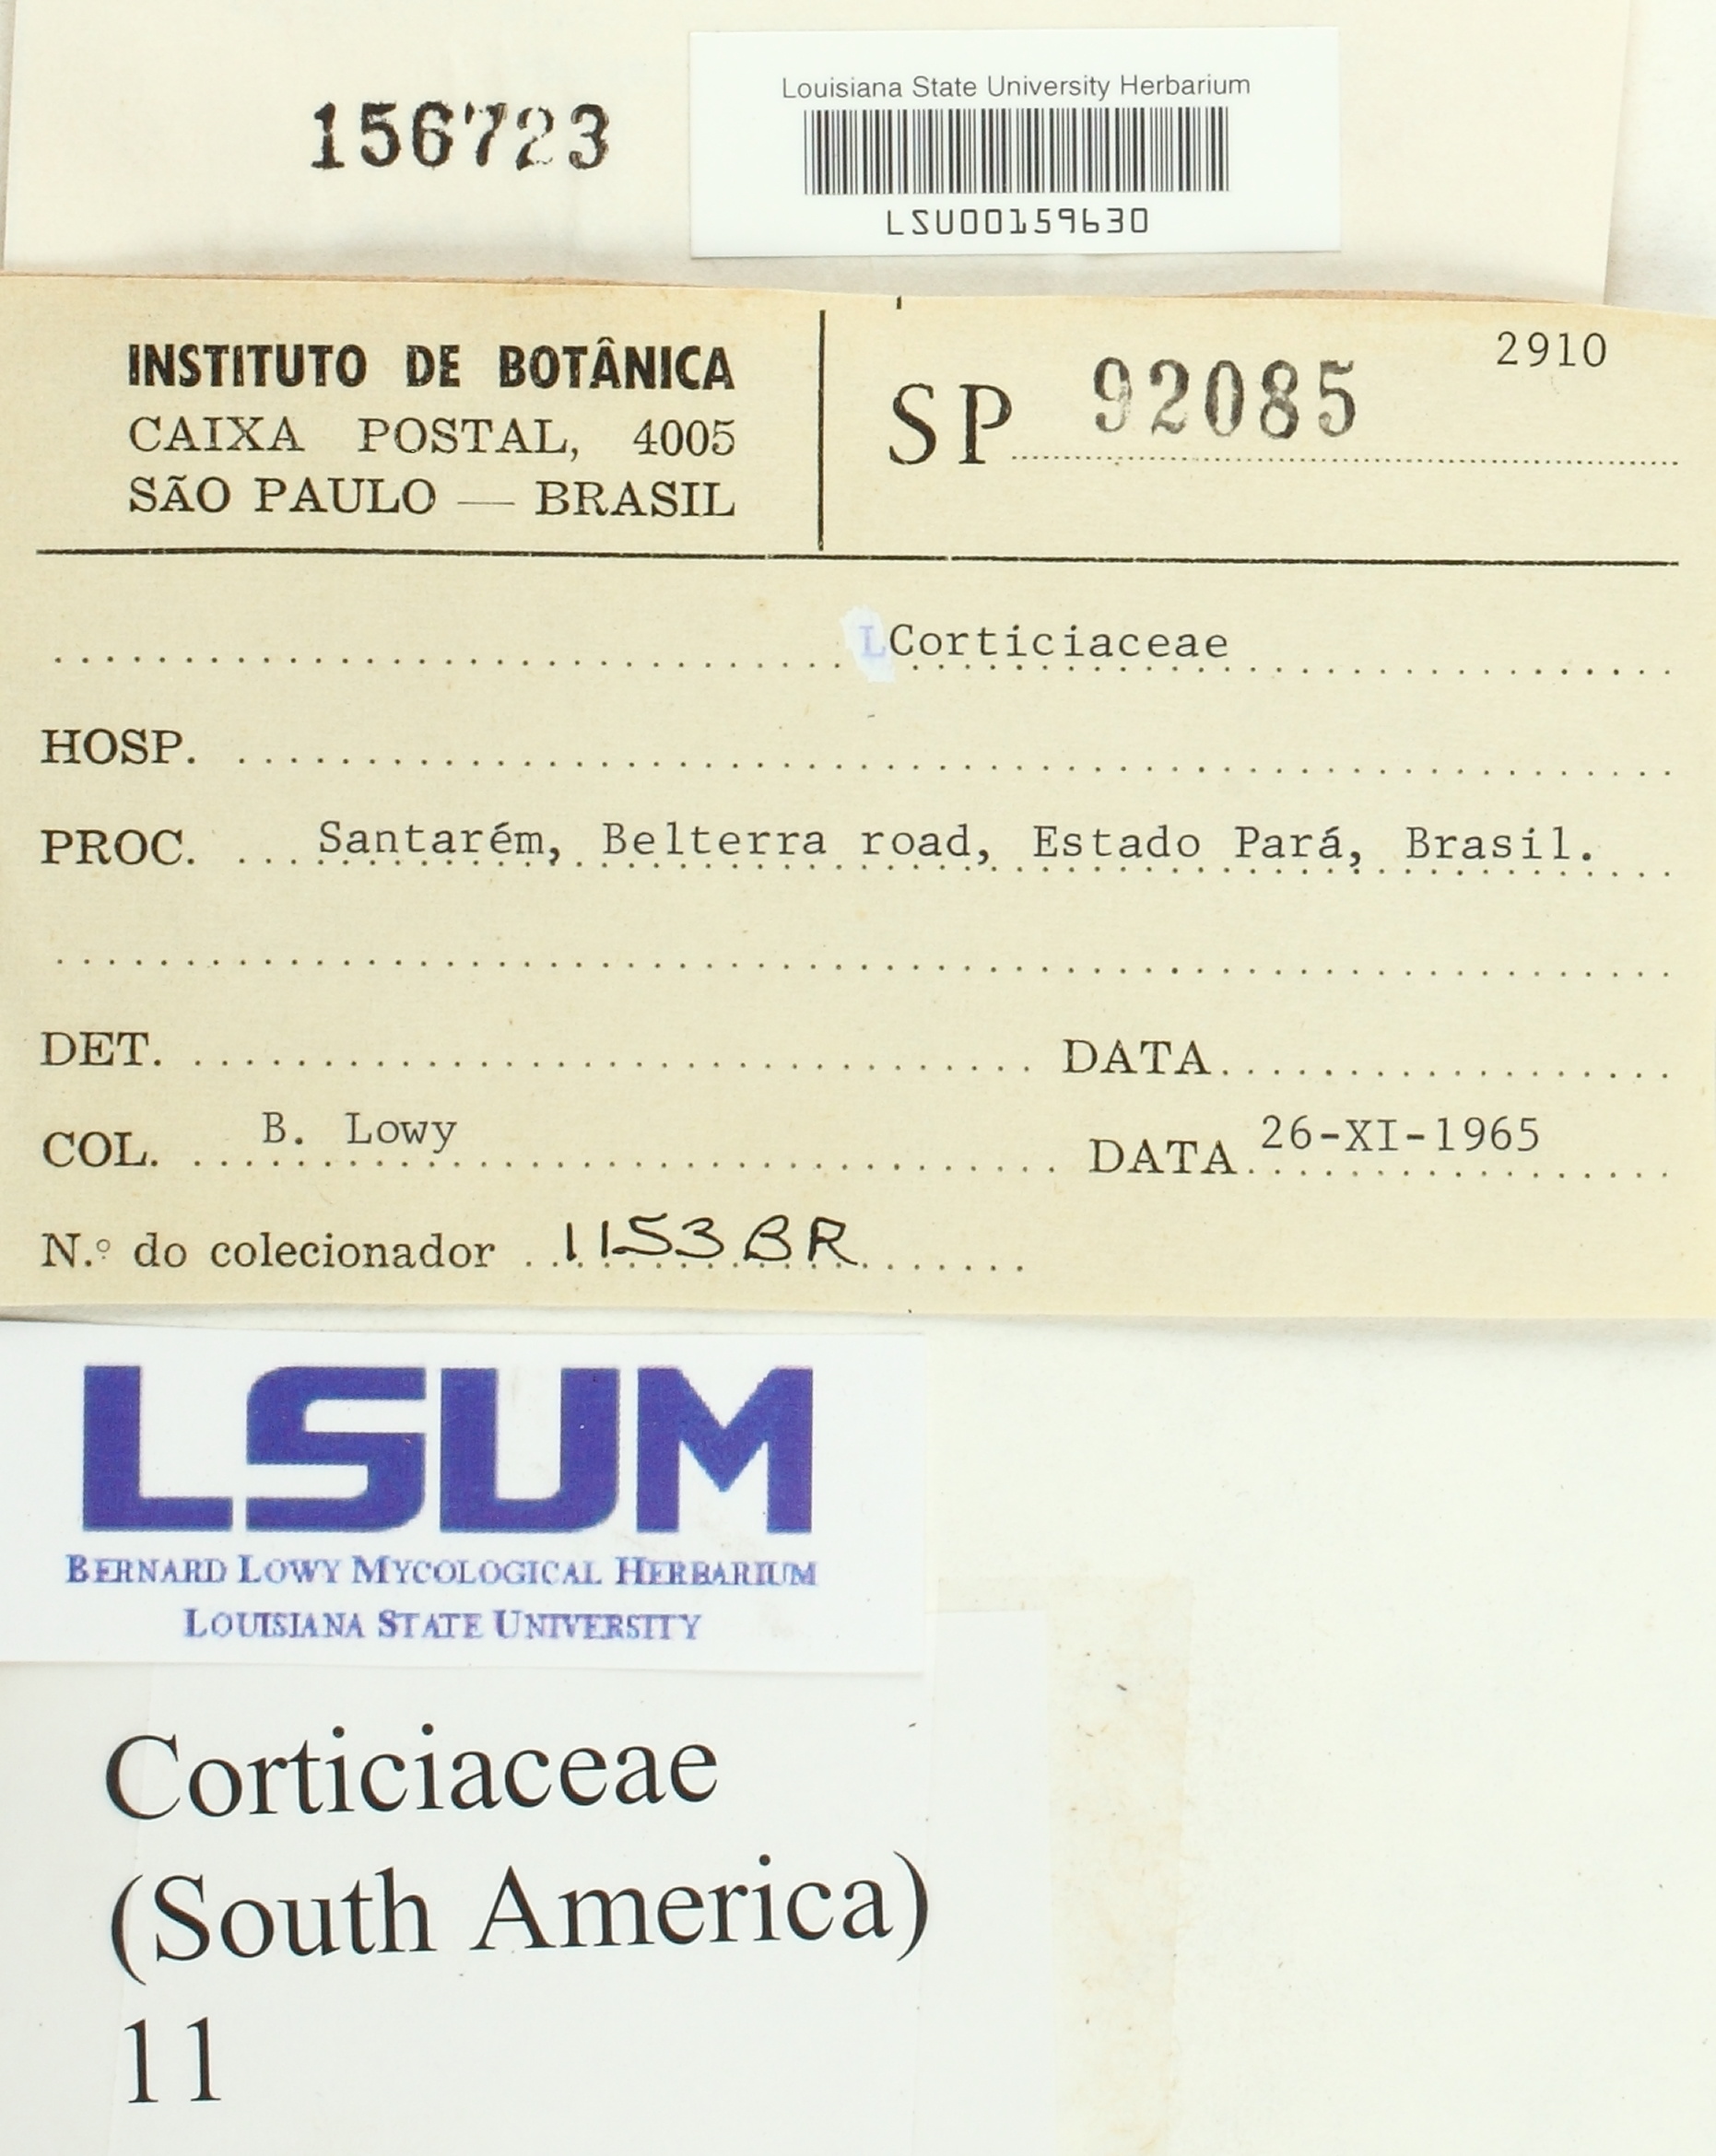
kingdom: Fungi
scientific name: Fungi
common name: Fungi
